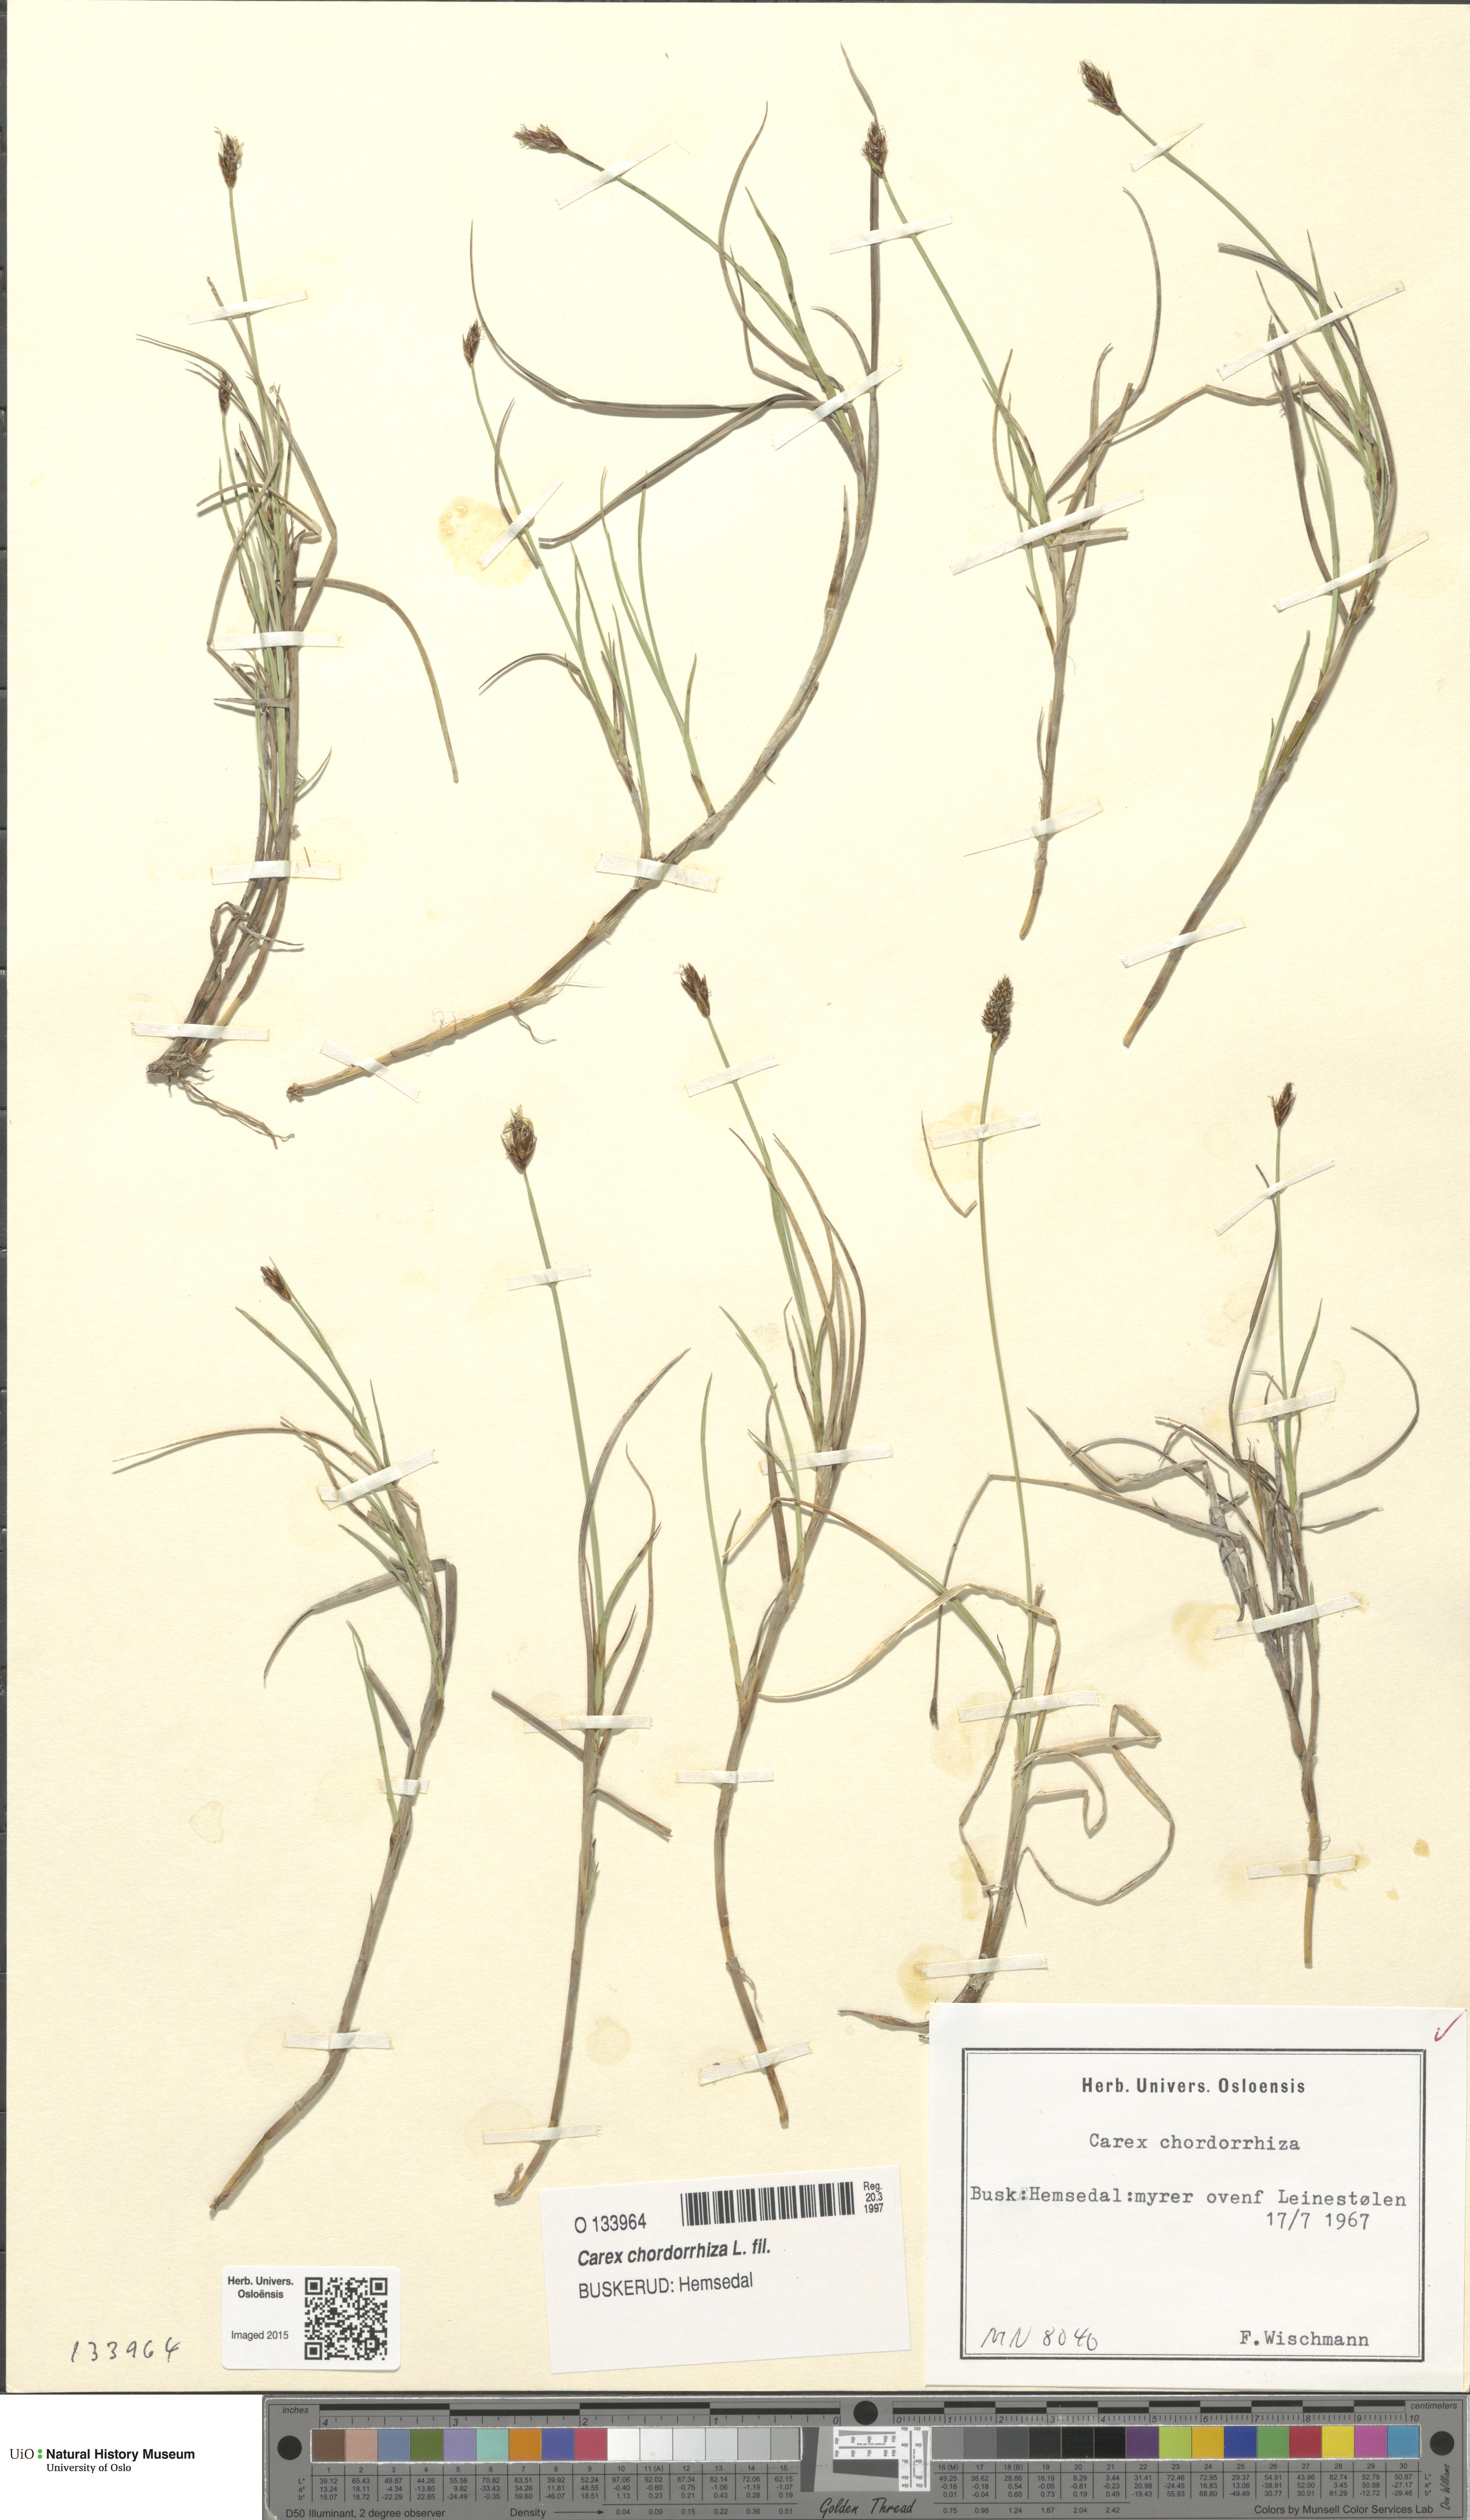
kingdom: Plantae
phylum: Tracheophyta
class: Liliopsida
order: Poales
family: Cyperaceae
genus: Carex
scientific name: Carex chordorrhiza
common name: String sedge
